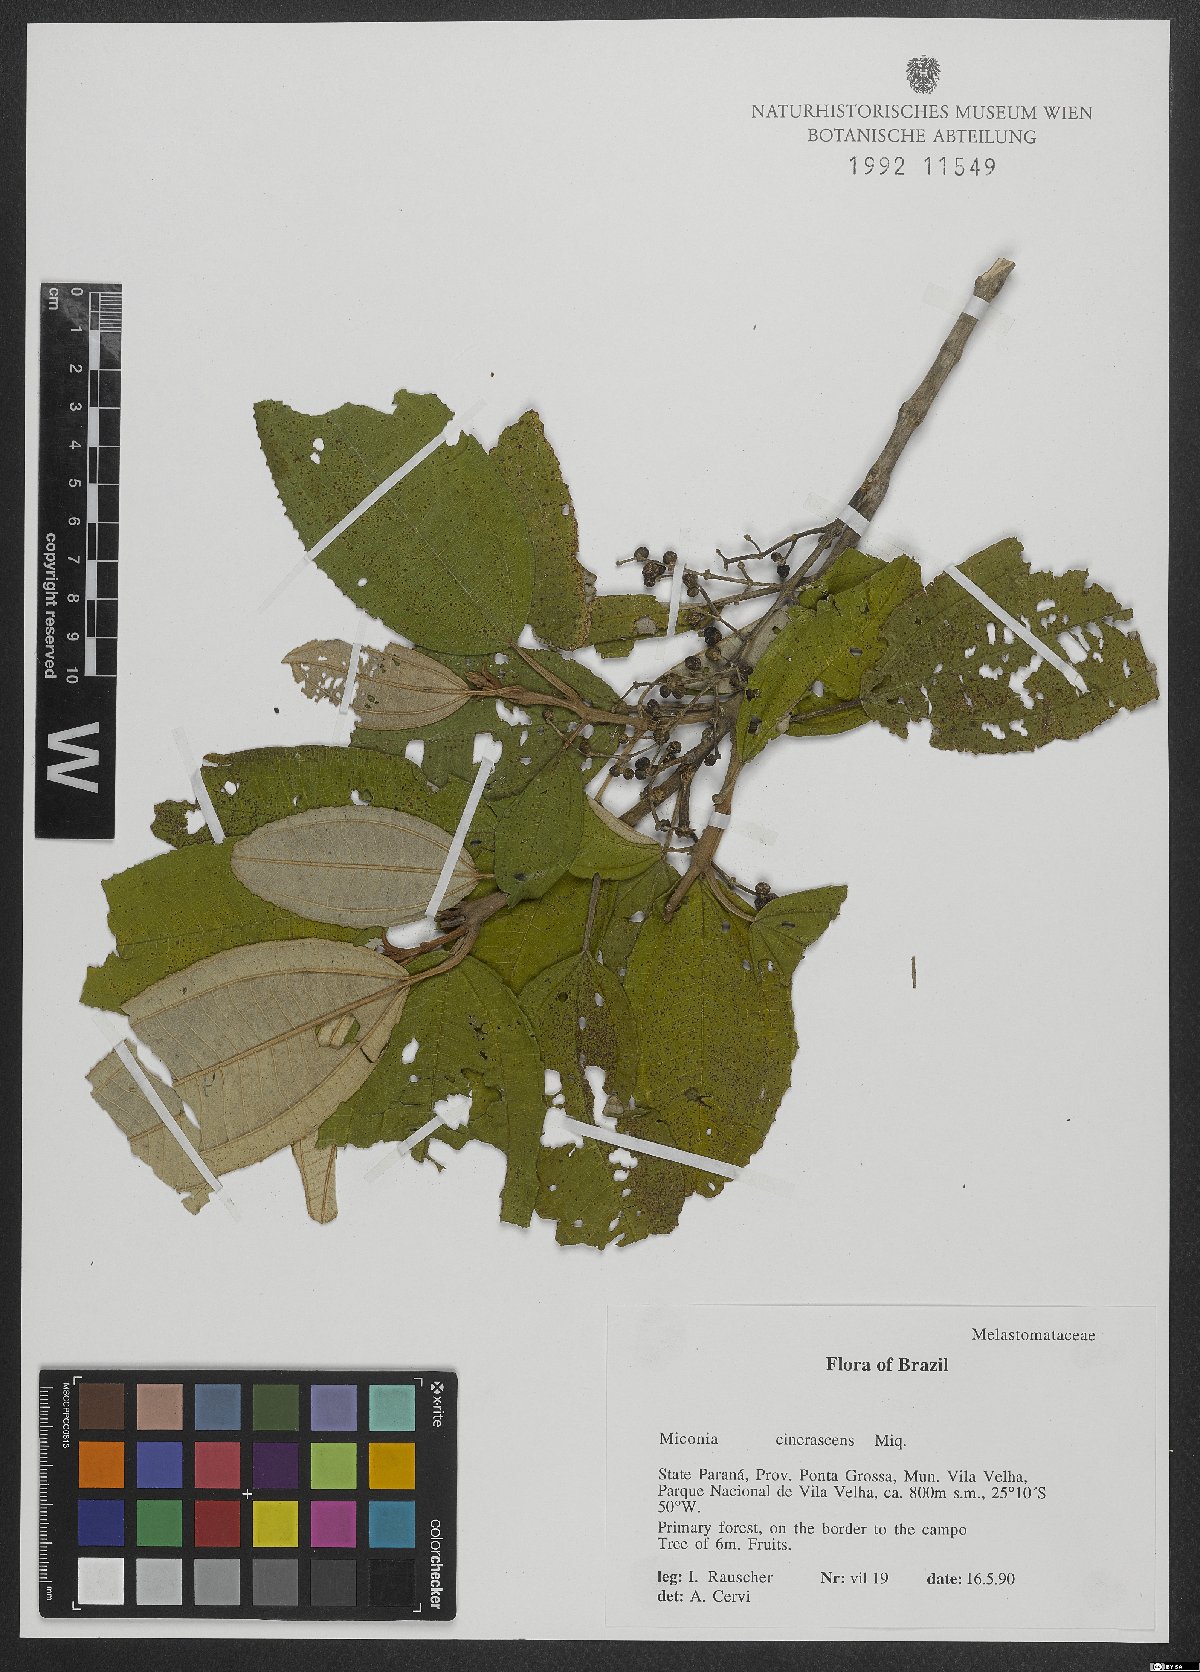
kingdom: Plantae
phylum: Tracheophyta
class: Magnoliopsida
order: Myrtales
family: Melastomataceae
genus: Miconia
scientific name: Miconia cinerascens
